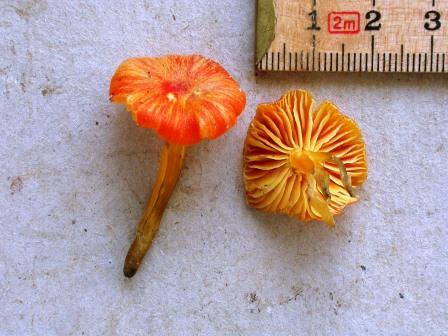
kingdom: Fungi
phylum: Basidiomycota
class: Agaricomycetes
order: Agaricales
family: Hygrophoraceae
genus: Hygrocybe
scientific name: Hygrocybe
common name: vokshat
